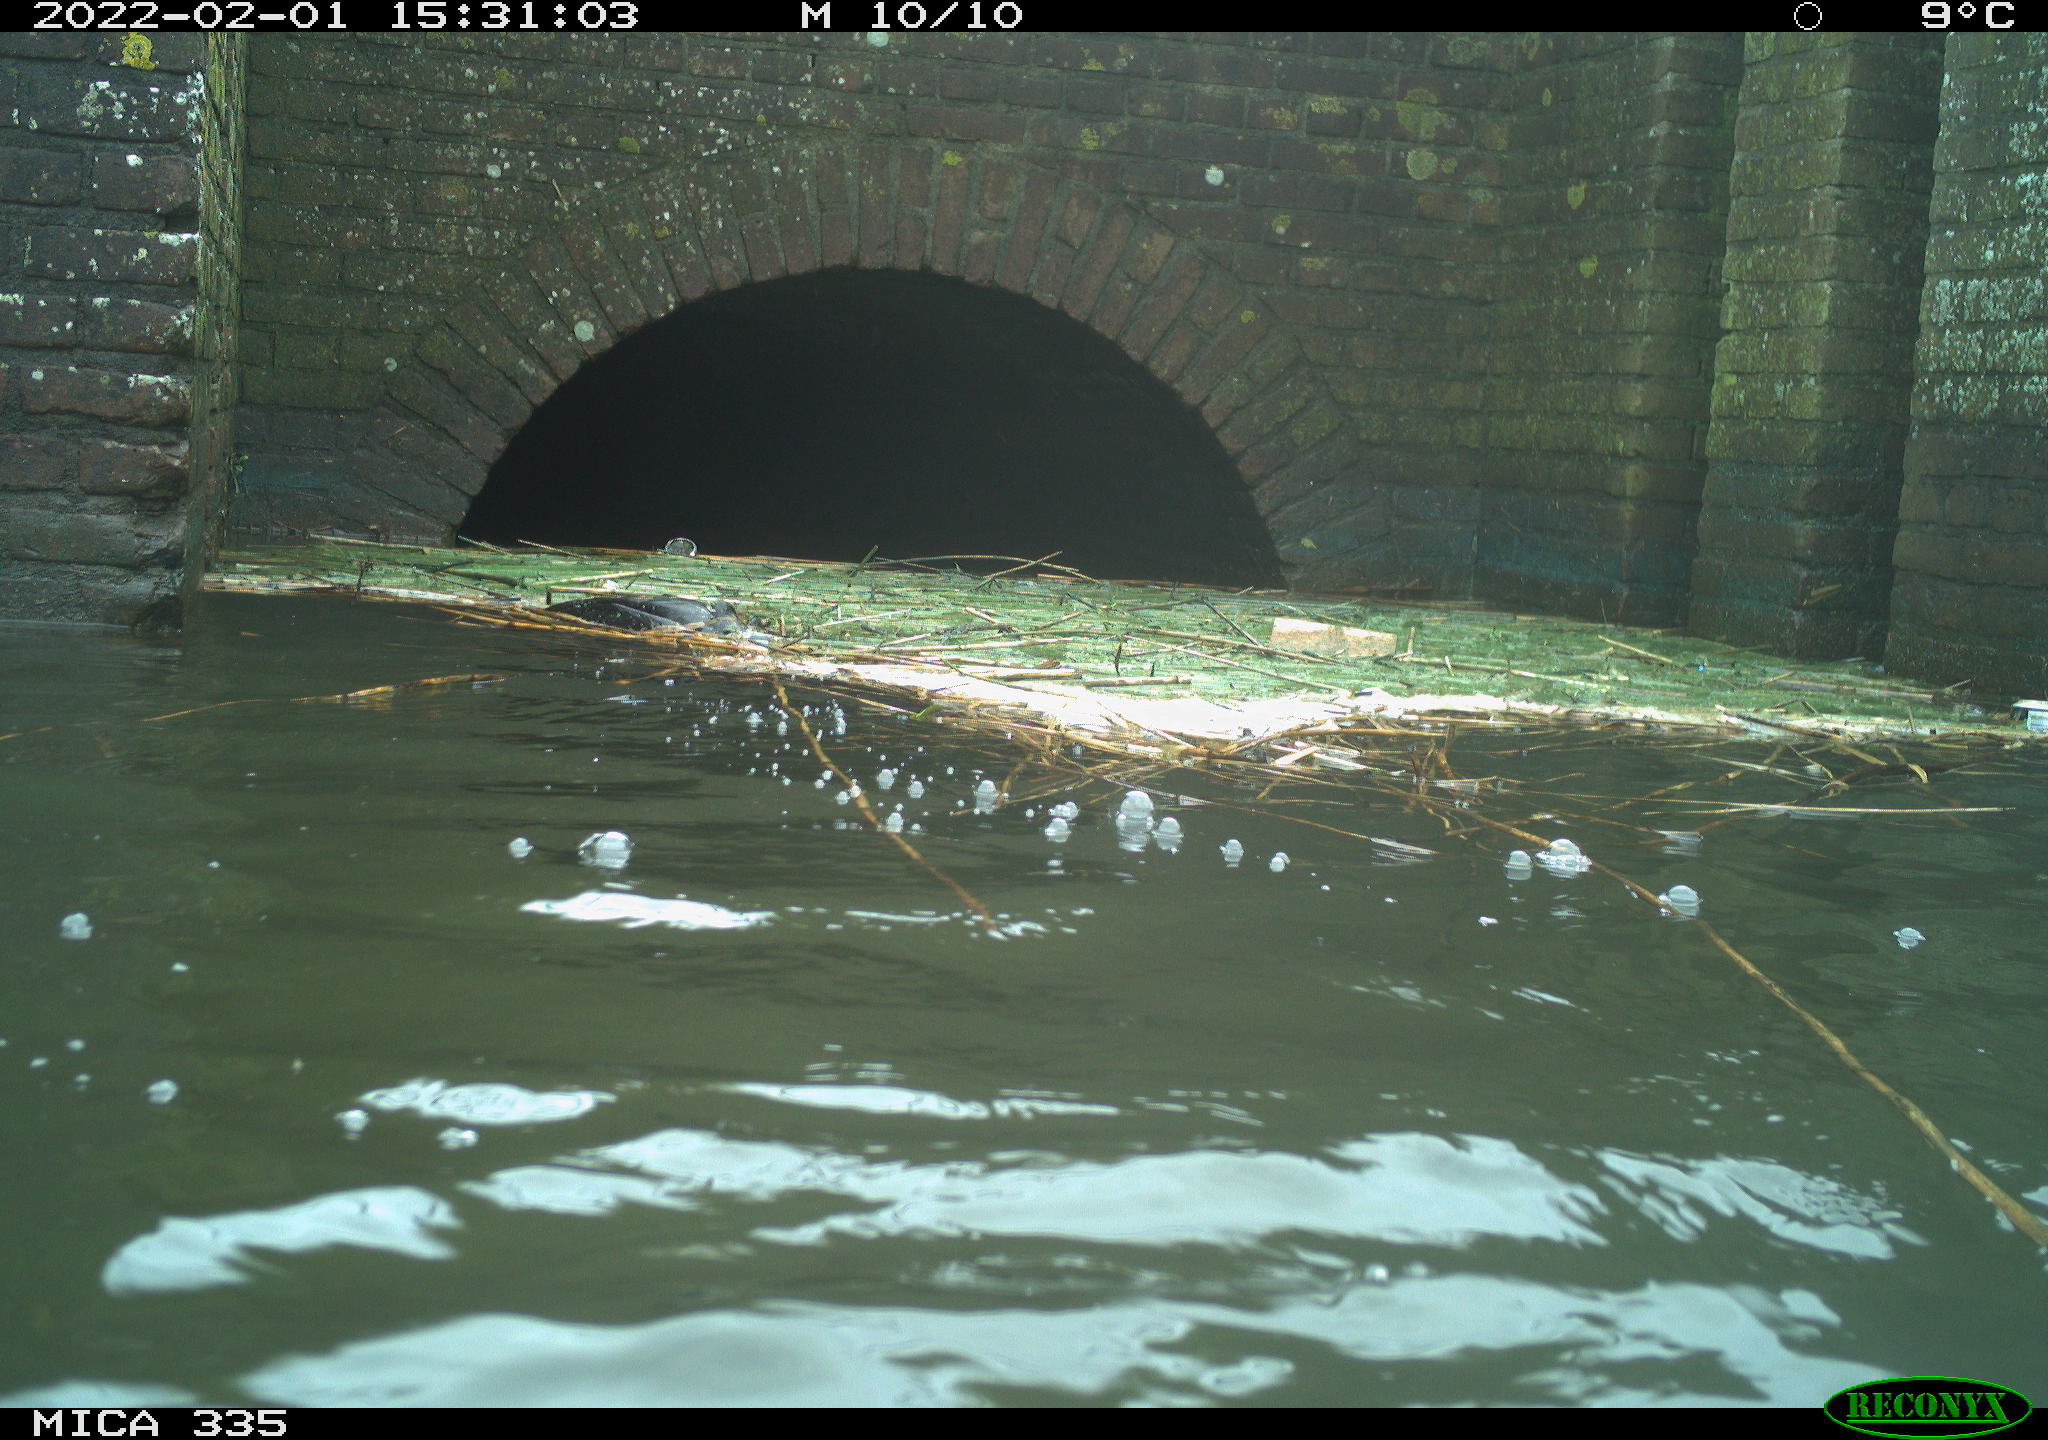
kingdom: Animalia
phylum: Chordata
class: Aves
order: Suliformes
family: Phalacrocoracidae
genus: Phalacrocorax
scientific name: Phalacrocorax carbo
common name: Great cormorant
